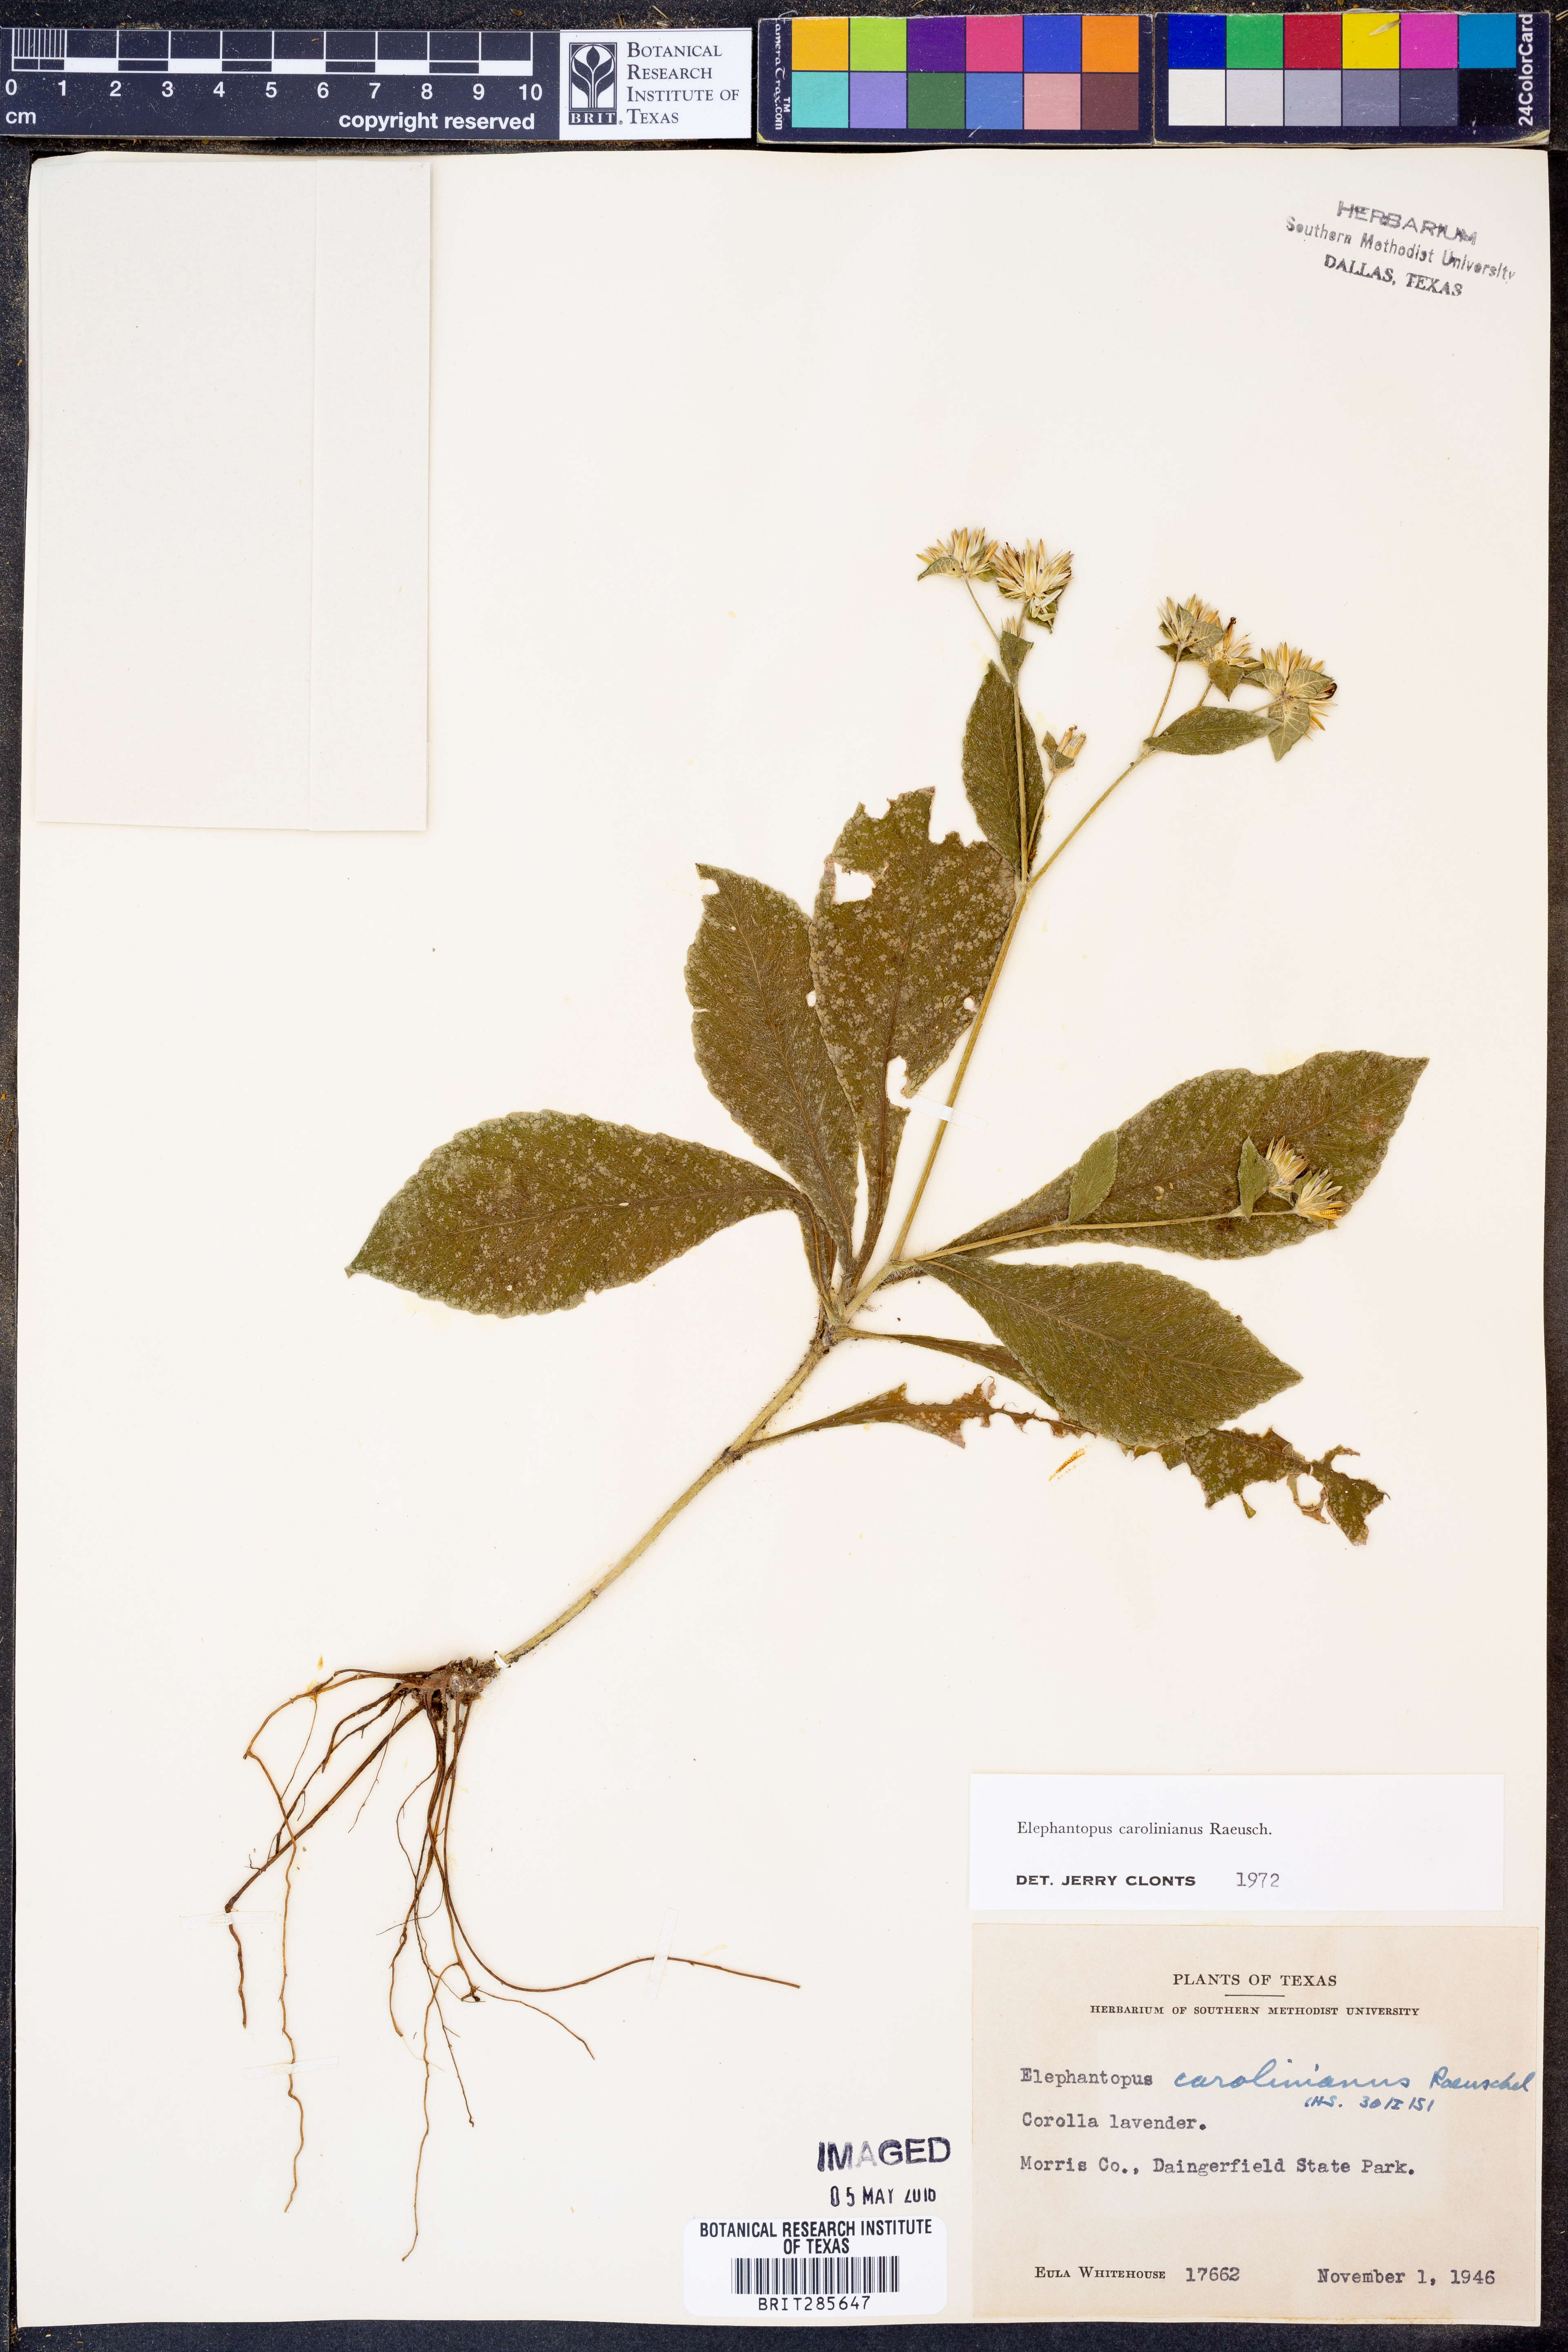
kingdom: Plantae
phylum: Tracheophyta
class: Magnoliopsida
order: Asterales
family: Asteraceae
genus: Elephantopus
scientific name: Elephantopus carolinianus
